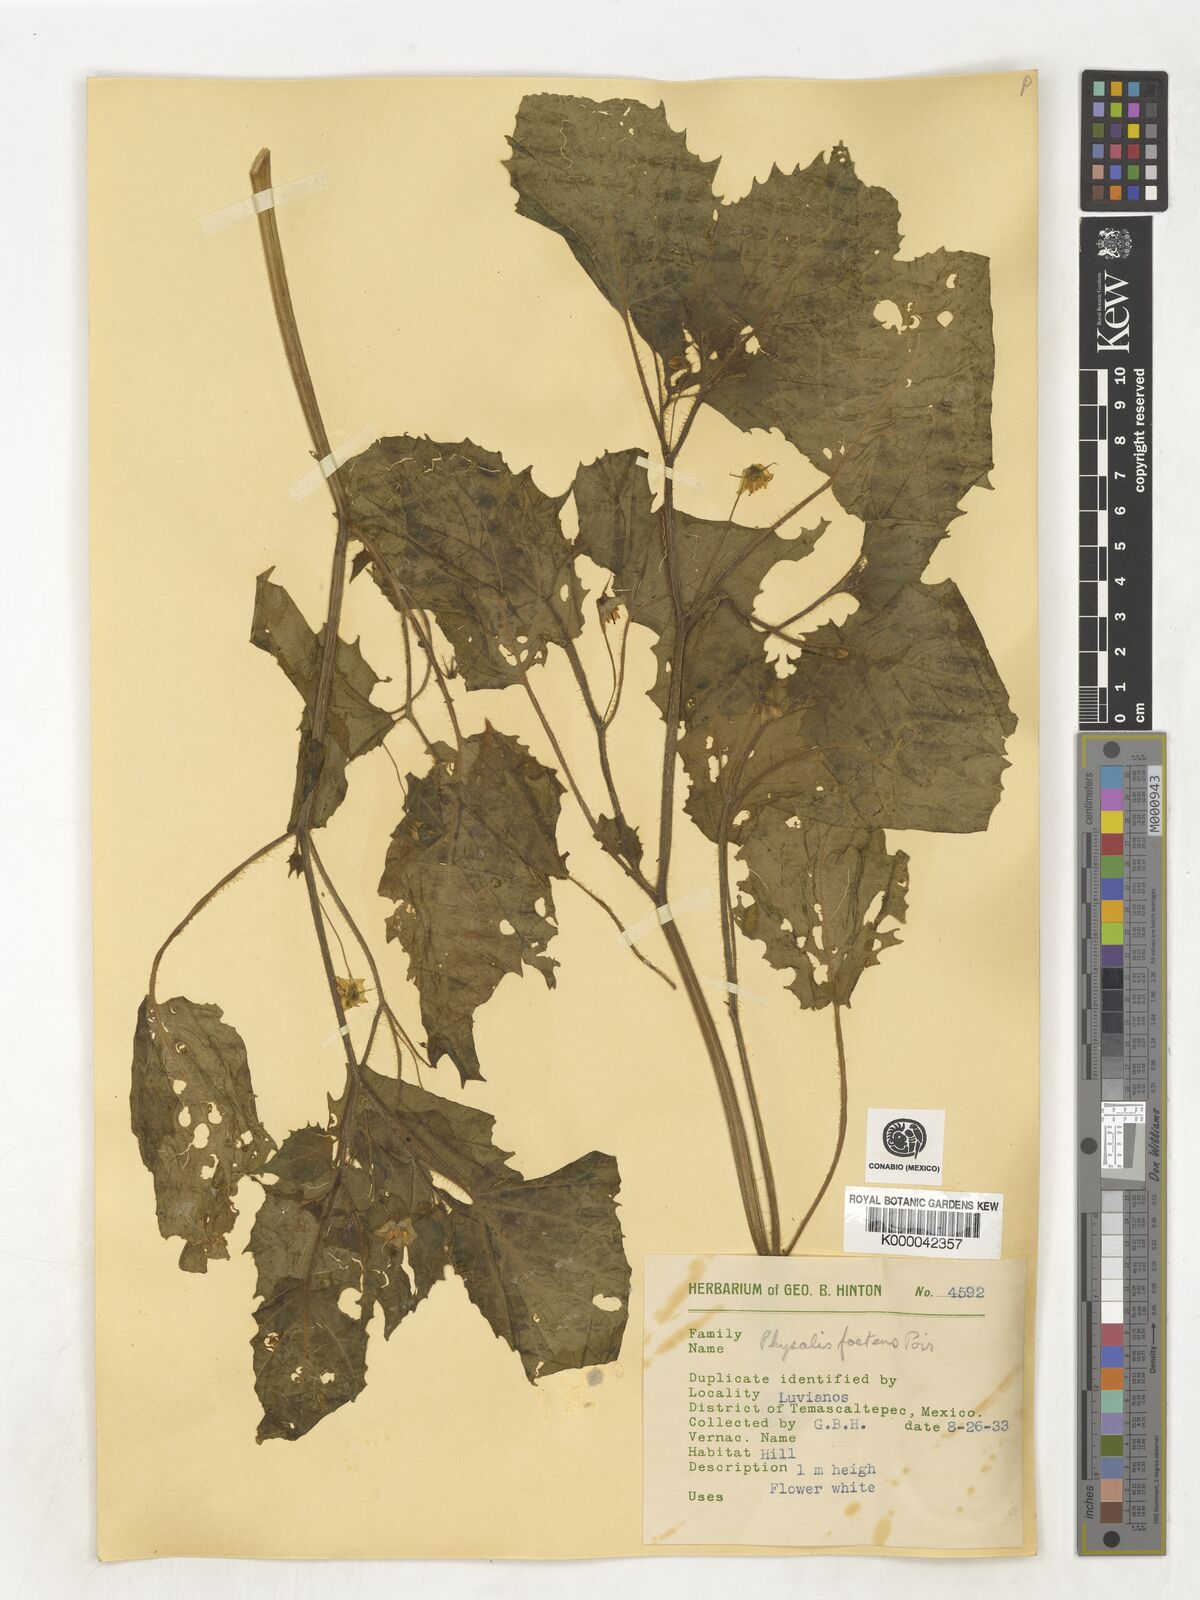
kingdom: Plantae
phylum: Tracheophyta
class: Magnoliopsida
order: Solanales
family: Solanaceae
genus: Physalis
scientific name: Physalis pubescens
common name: Downy ground-cherry
